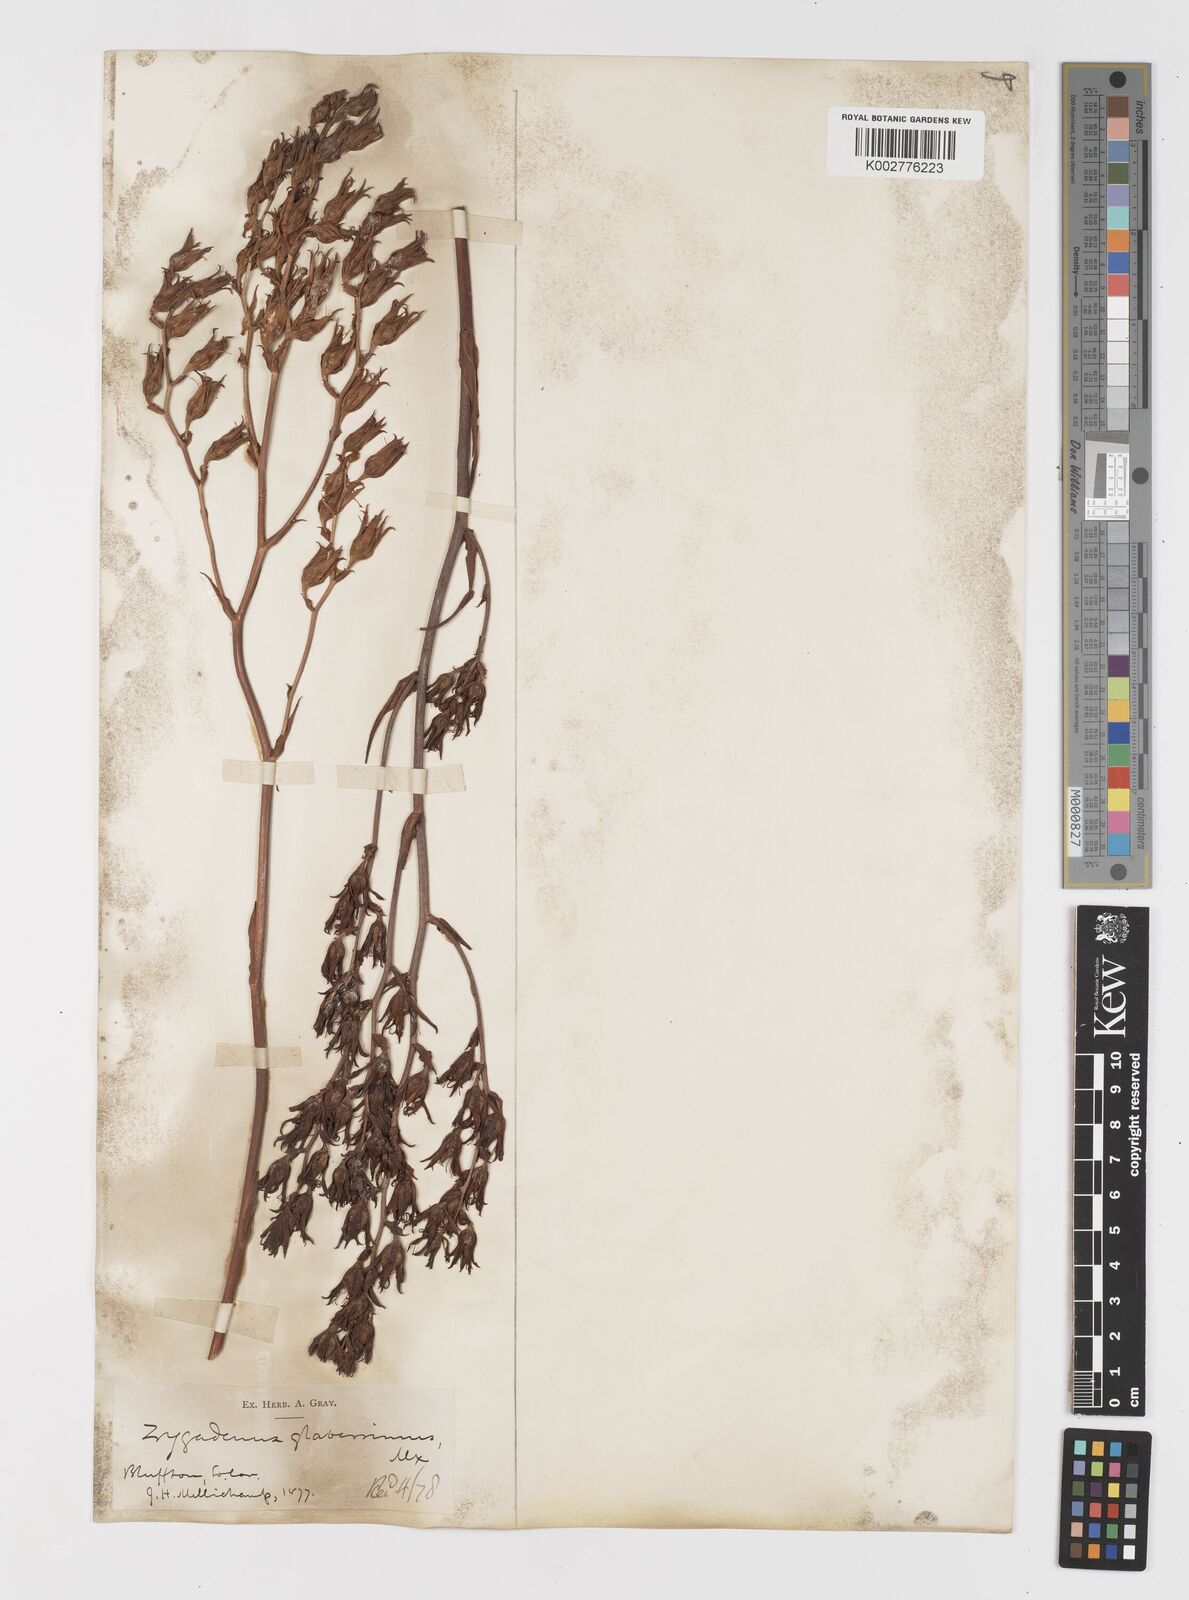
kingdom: Plantae
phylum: Tracheophyta
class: Liliopsida
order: Liliales
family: Melanthiaceae
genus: Zigadenus
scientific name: Zigadenus glaberrimus
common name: Sandbog death camas
